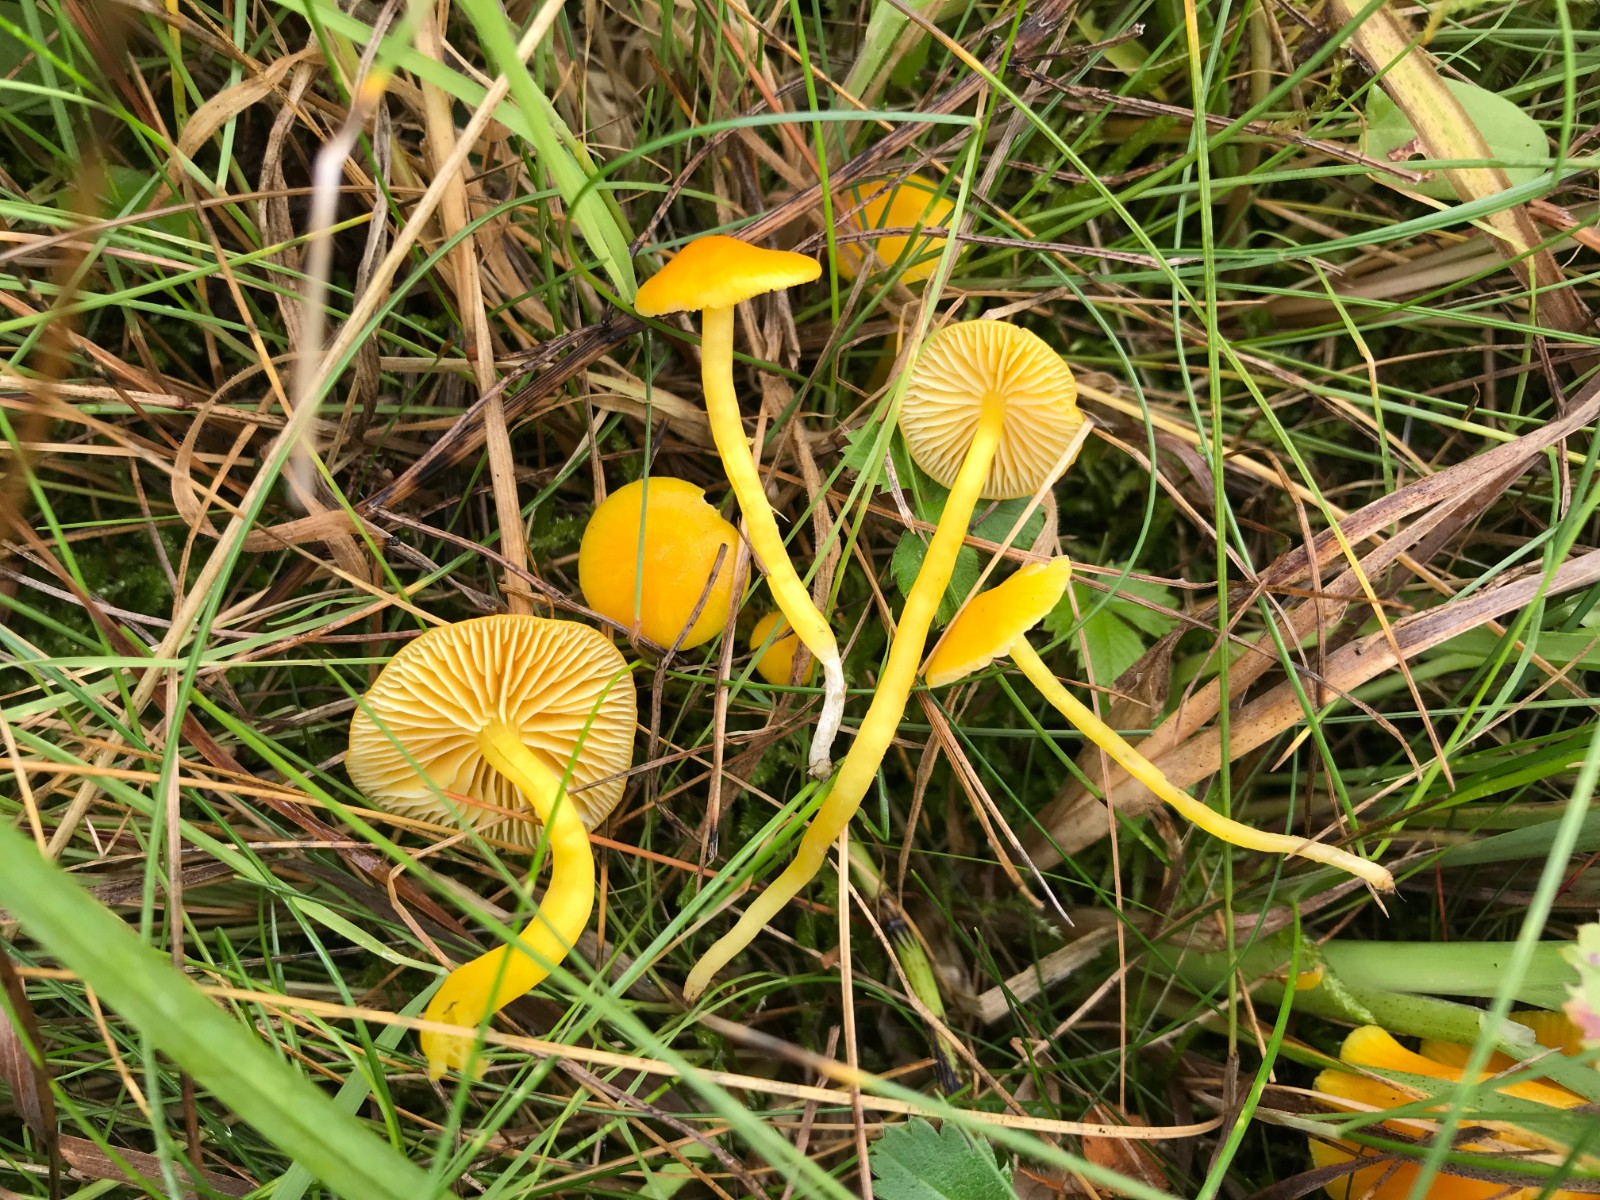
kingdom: Fungi
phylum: Basidiomycota
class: Agaricomycetes
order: Agaricales
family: Hygrophoraceae
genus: Hygrocybe
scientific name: Hygrocybe ceracea
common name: voksgul vokshat
